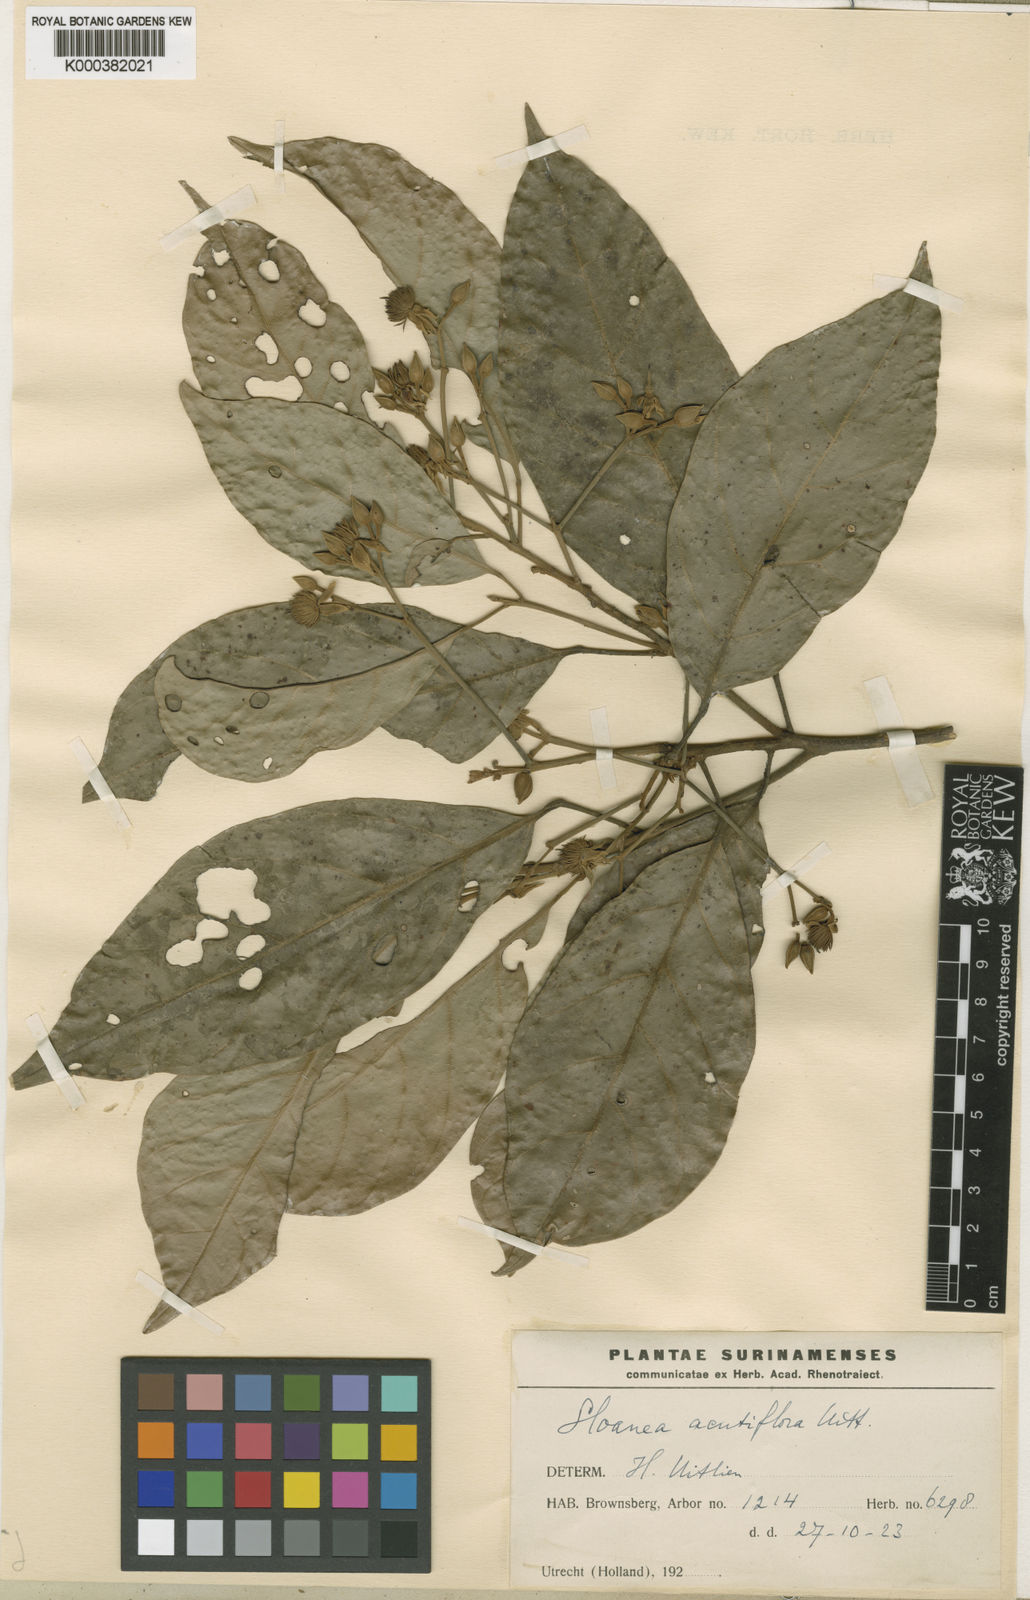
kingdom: Plantae
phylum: Tracheophyta
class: Magnoliopsida
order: Oxalidales
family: Elaeocarpaceae
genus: Sloanea
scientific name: Sloanea laxiflora
